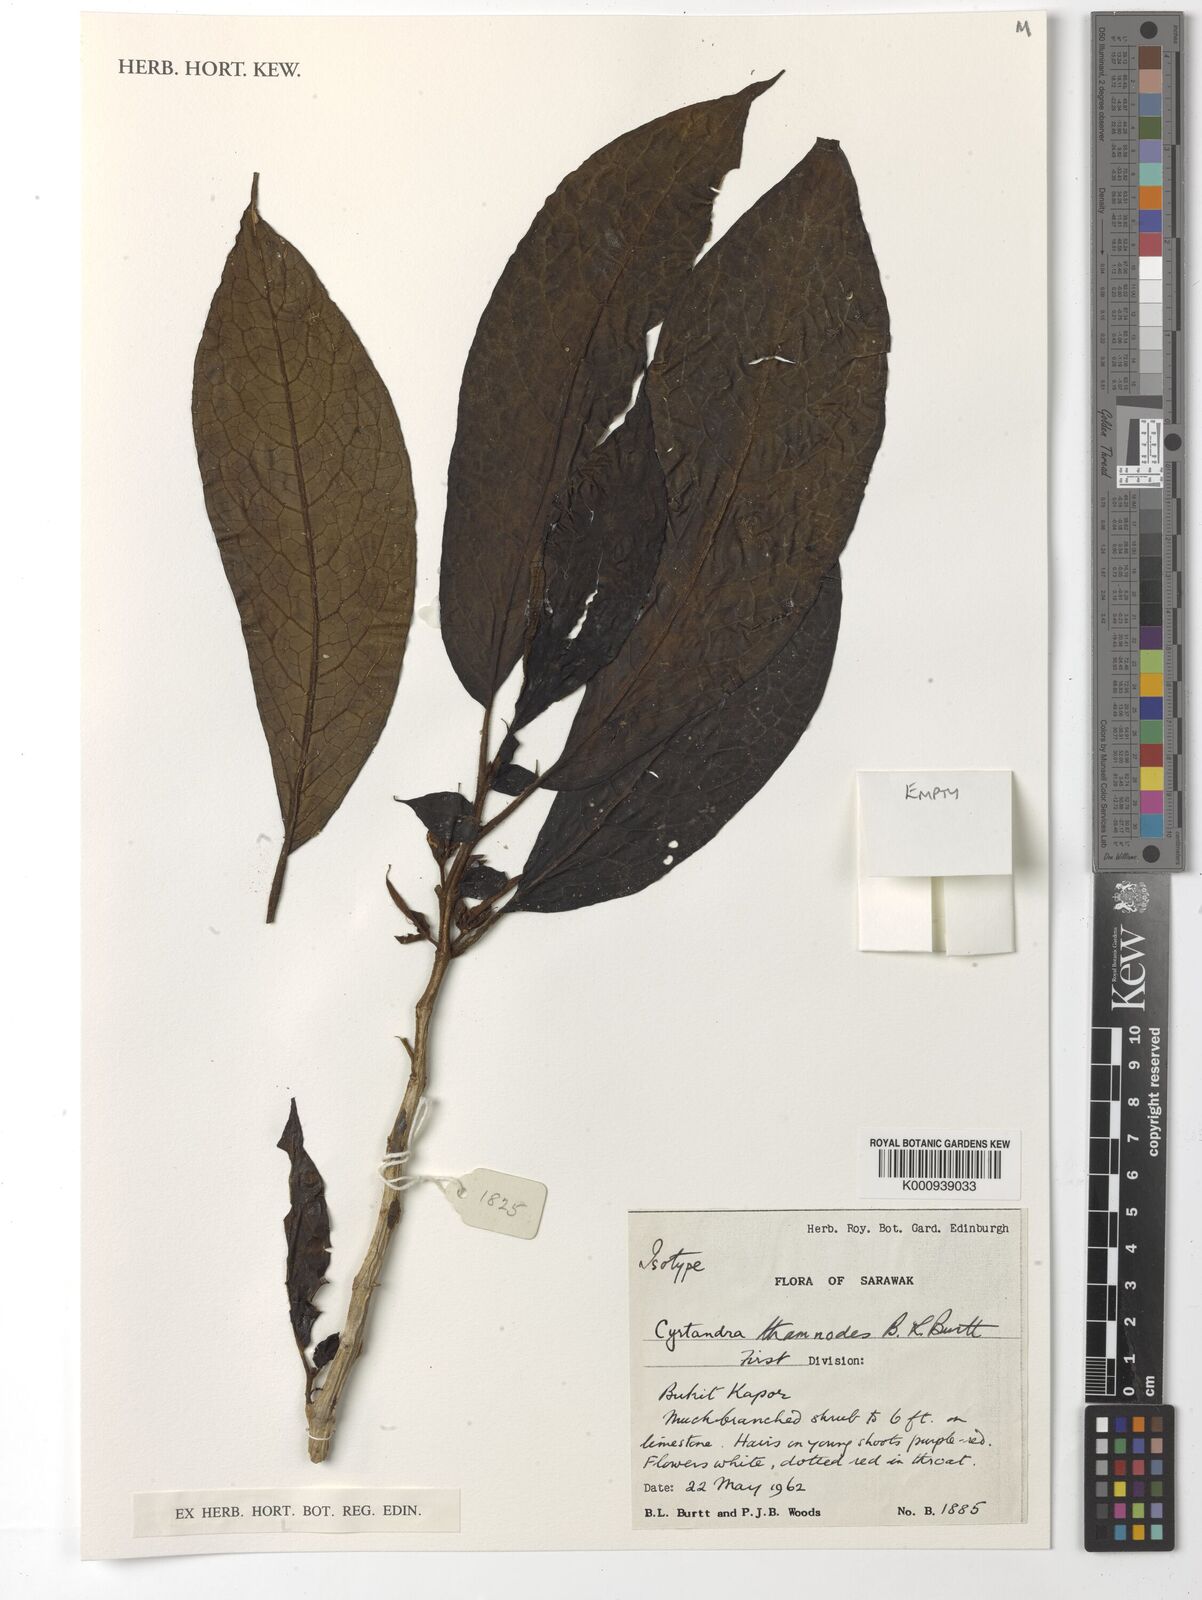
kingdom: Plantae
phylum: Tracheophyta
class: Magnoliopsida
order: Lamiales
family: Gesneriaceae
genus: Cyrtandra
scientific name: Cyrtandra thamnodes
